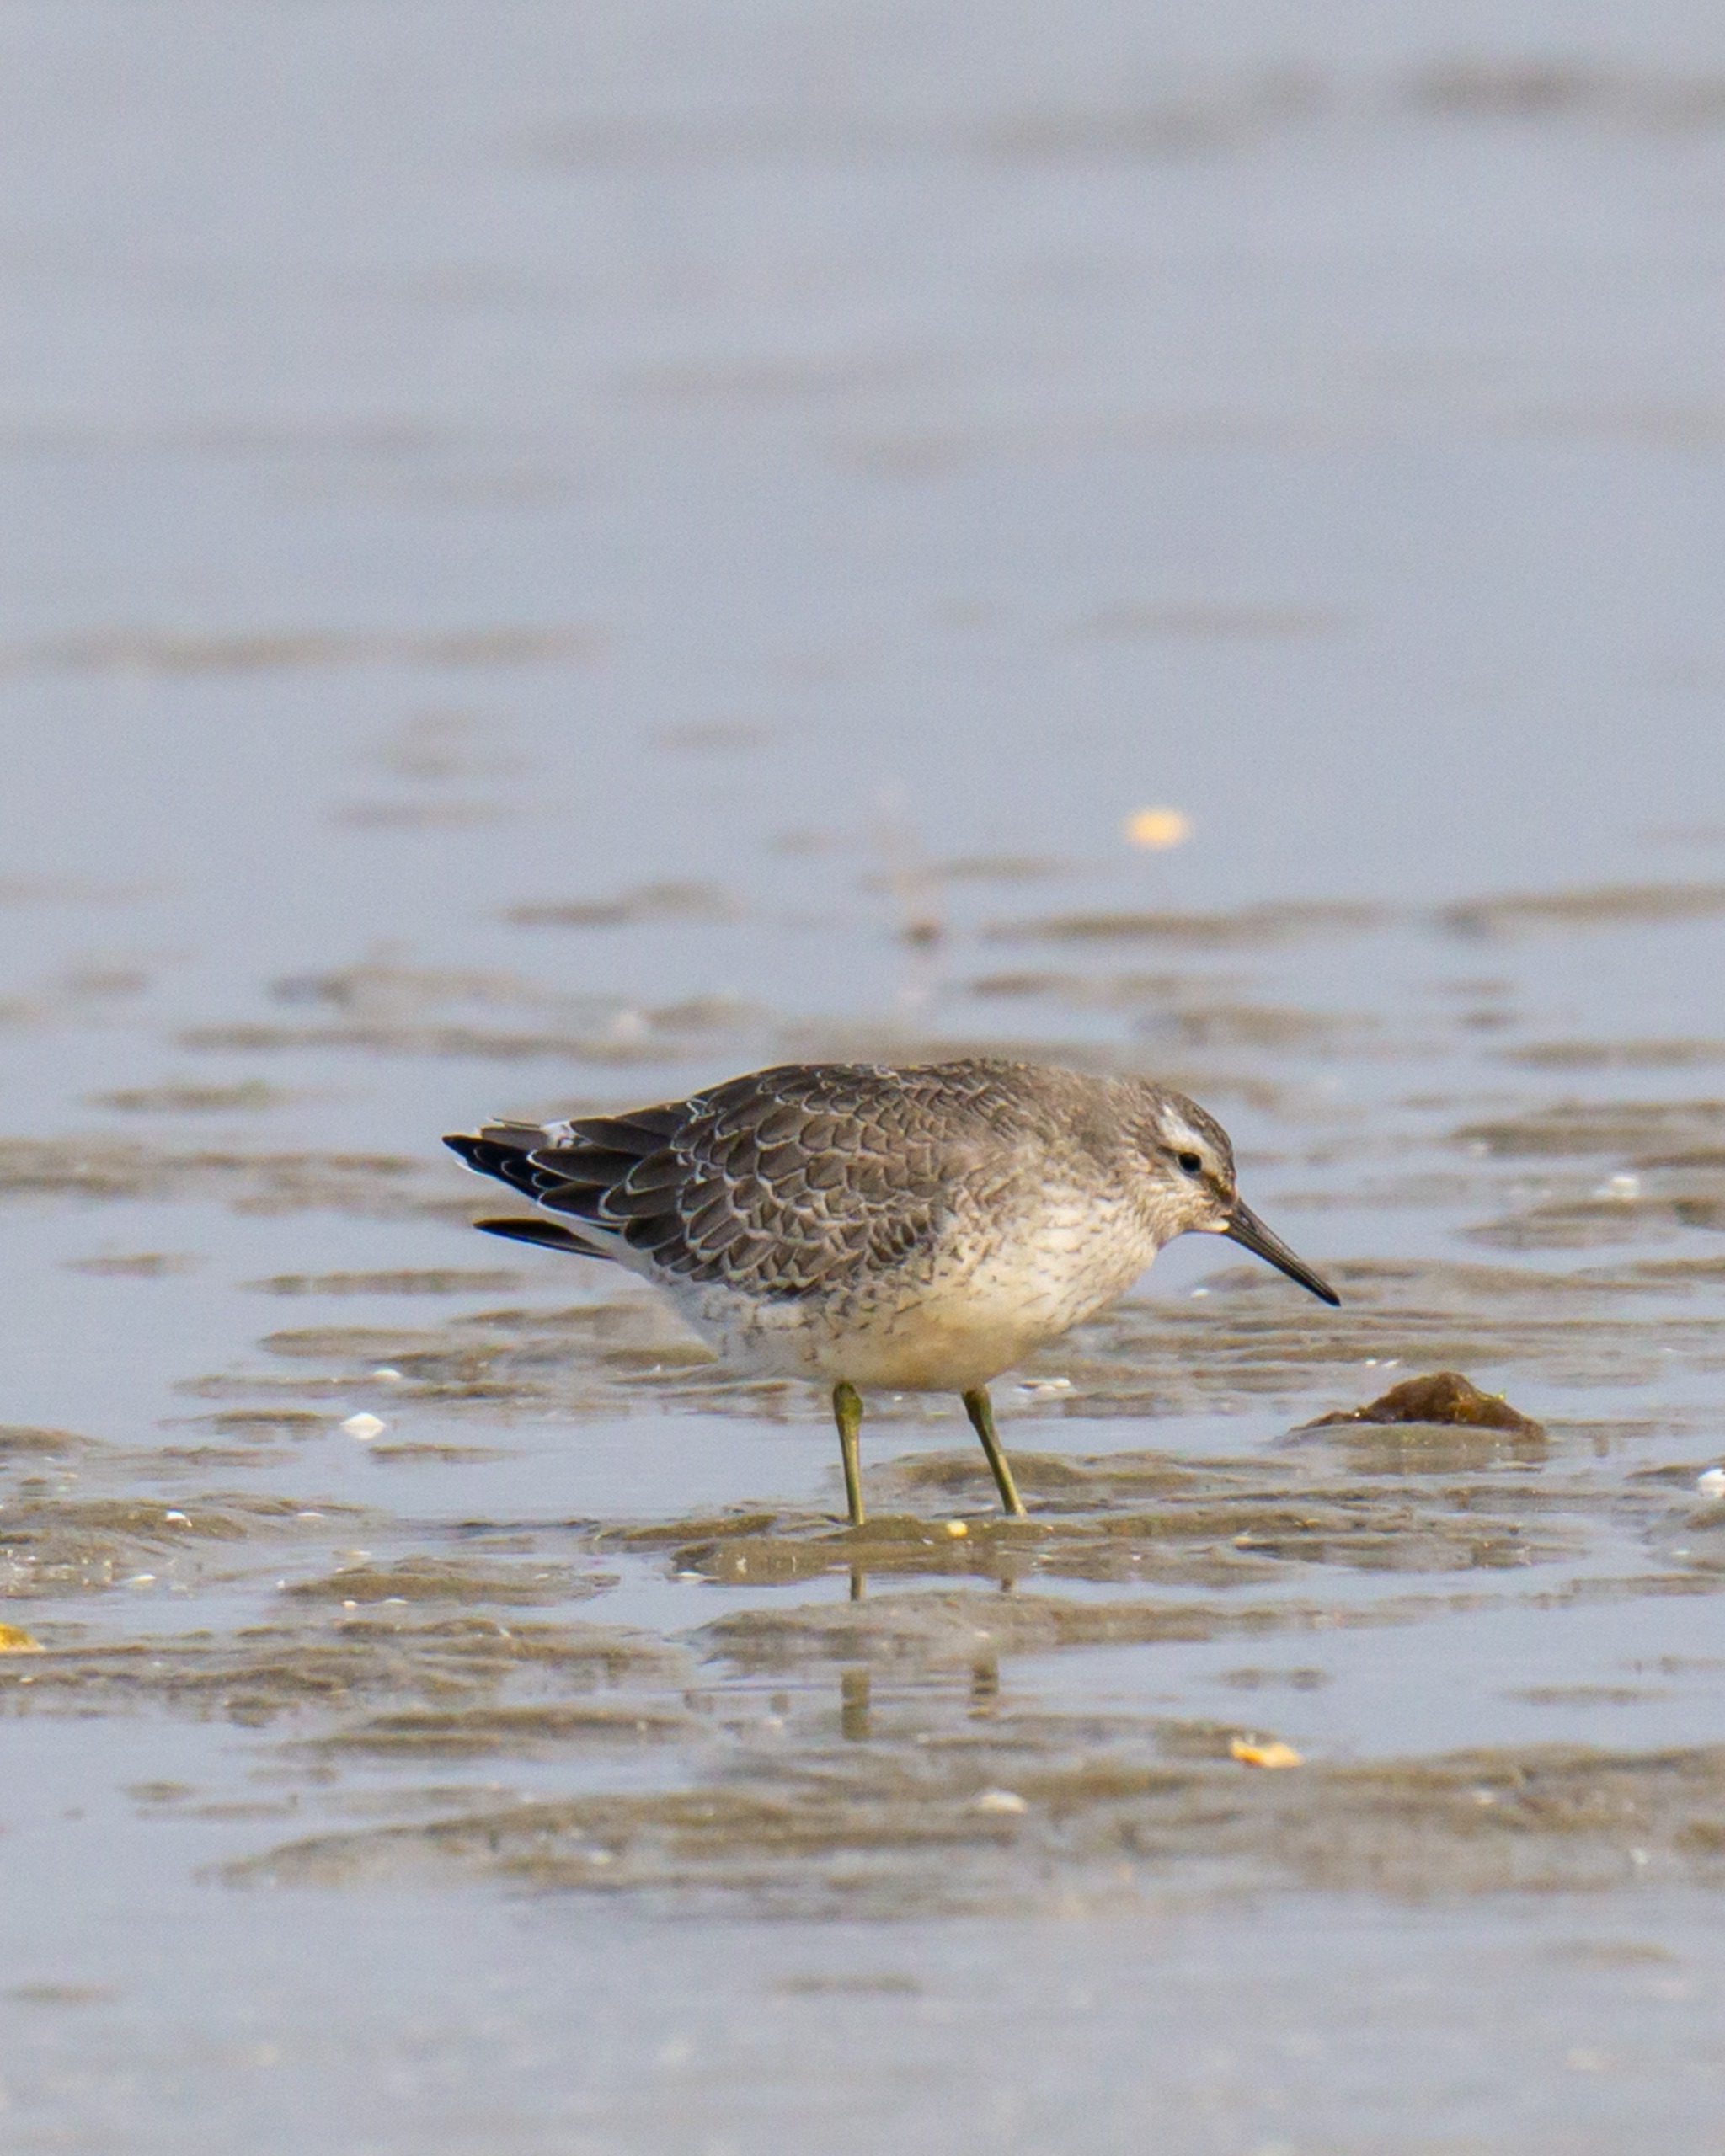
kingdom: Animalia
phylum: Chordata
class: Aves
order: Charadriiformes
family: Scolopacidae
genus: Calidris
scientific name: Calidris canutus
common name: Islandsk ryle
